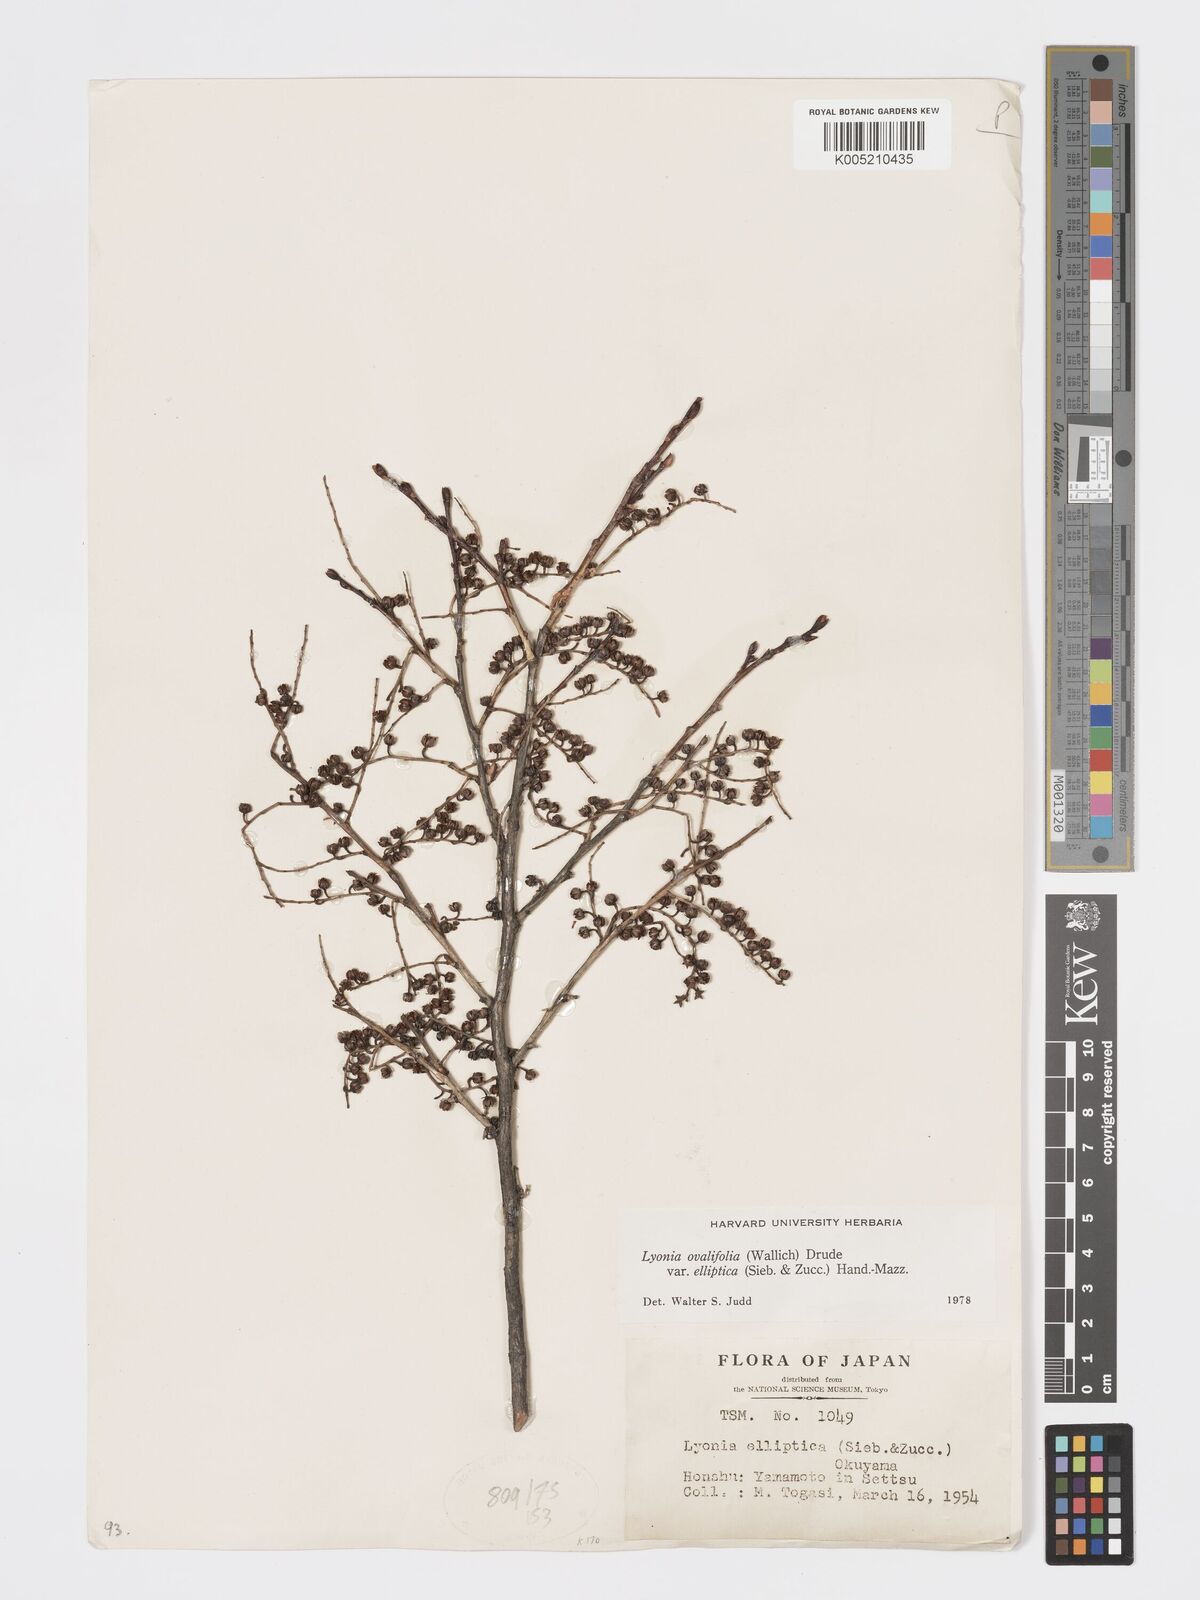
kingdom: Plantae
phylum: Tracheophyta
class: Magnoliopsida
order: Ericales
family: Ericaceae
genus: Lyonia
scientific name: Lyonia elliptica
